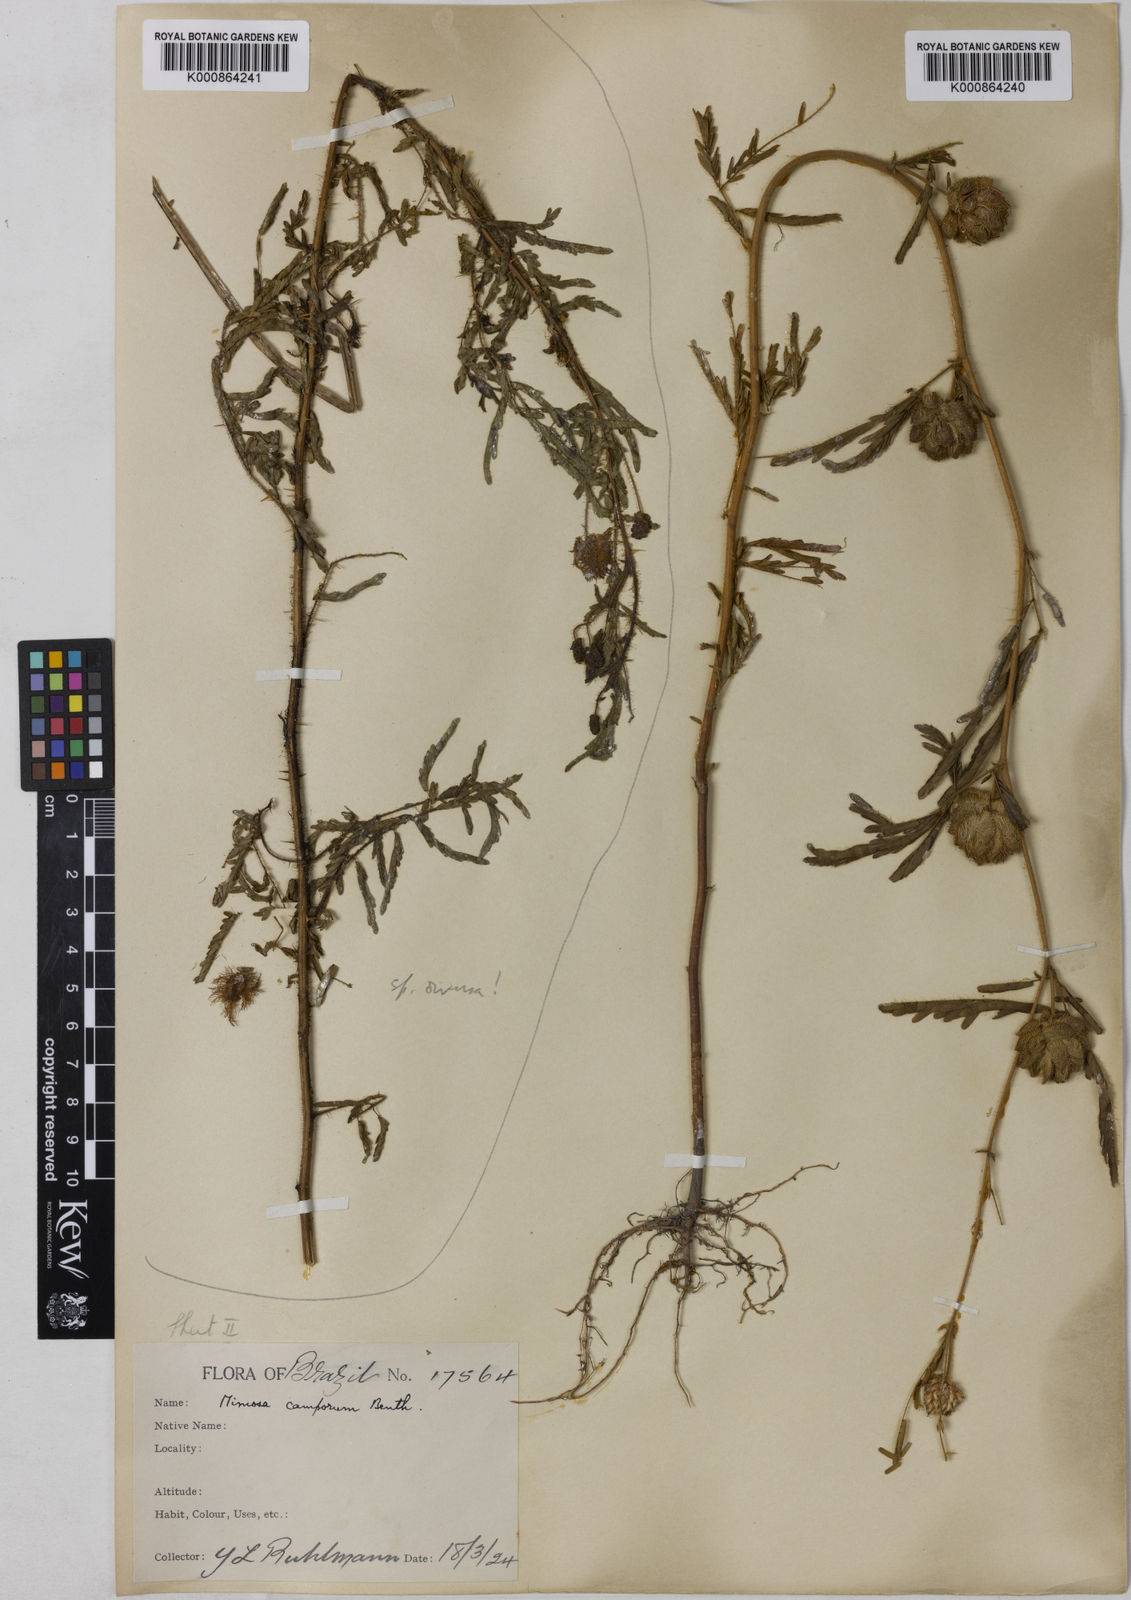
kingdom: Plantae
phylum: Tracheophyta
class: Magnoliopsida
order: Fabales
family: Fabaceae
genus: Mimosa
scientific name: Mimosa camporum
